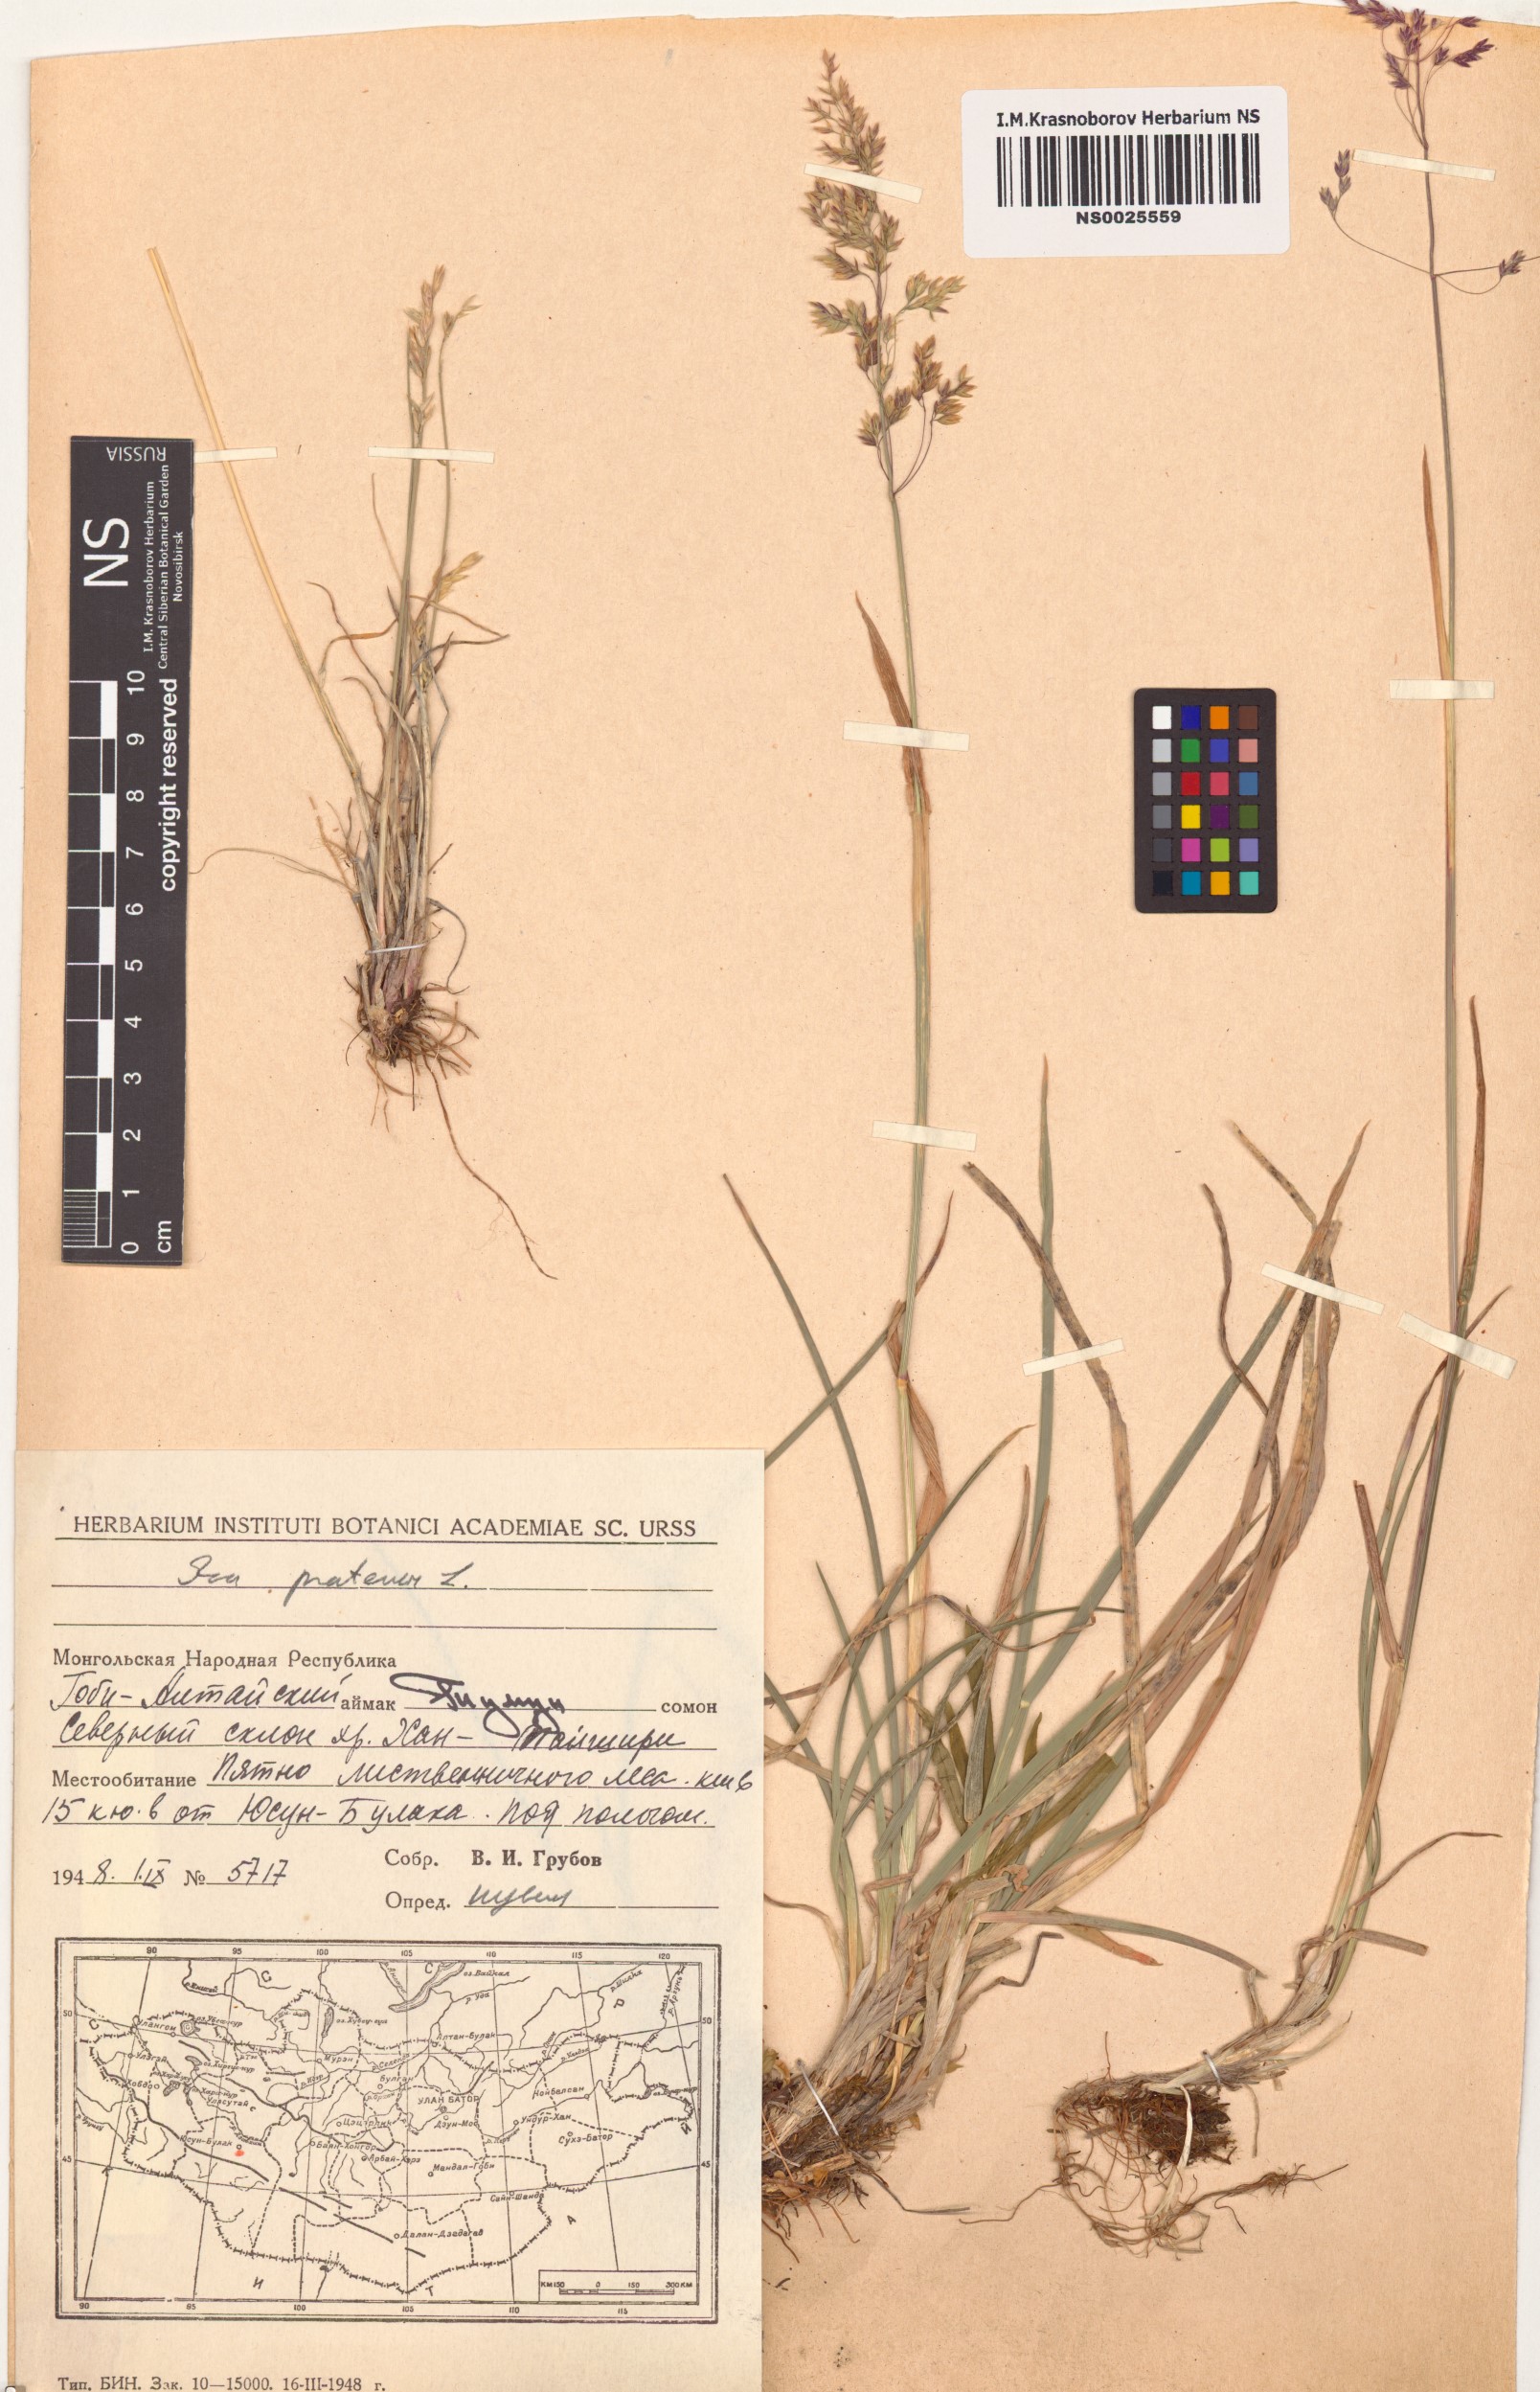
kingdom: Plantae
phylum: Tracheophyta
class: Liliopsida
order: Poales
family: Poaceae
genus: Poa
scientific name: Poa pratensis
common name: Kentucky bluegrass
